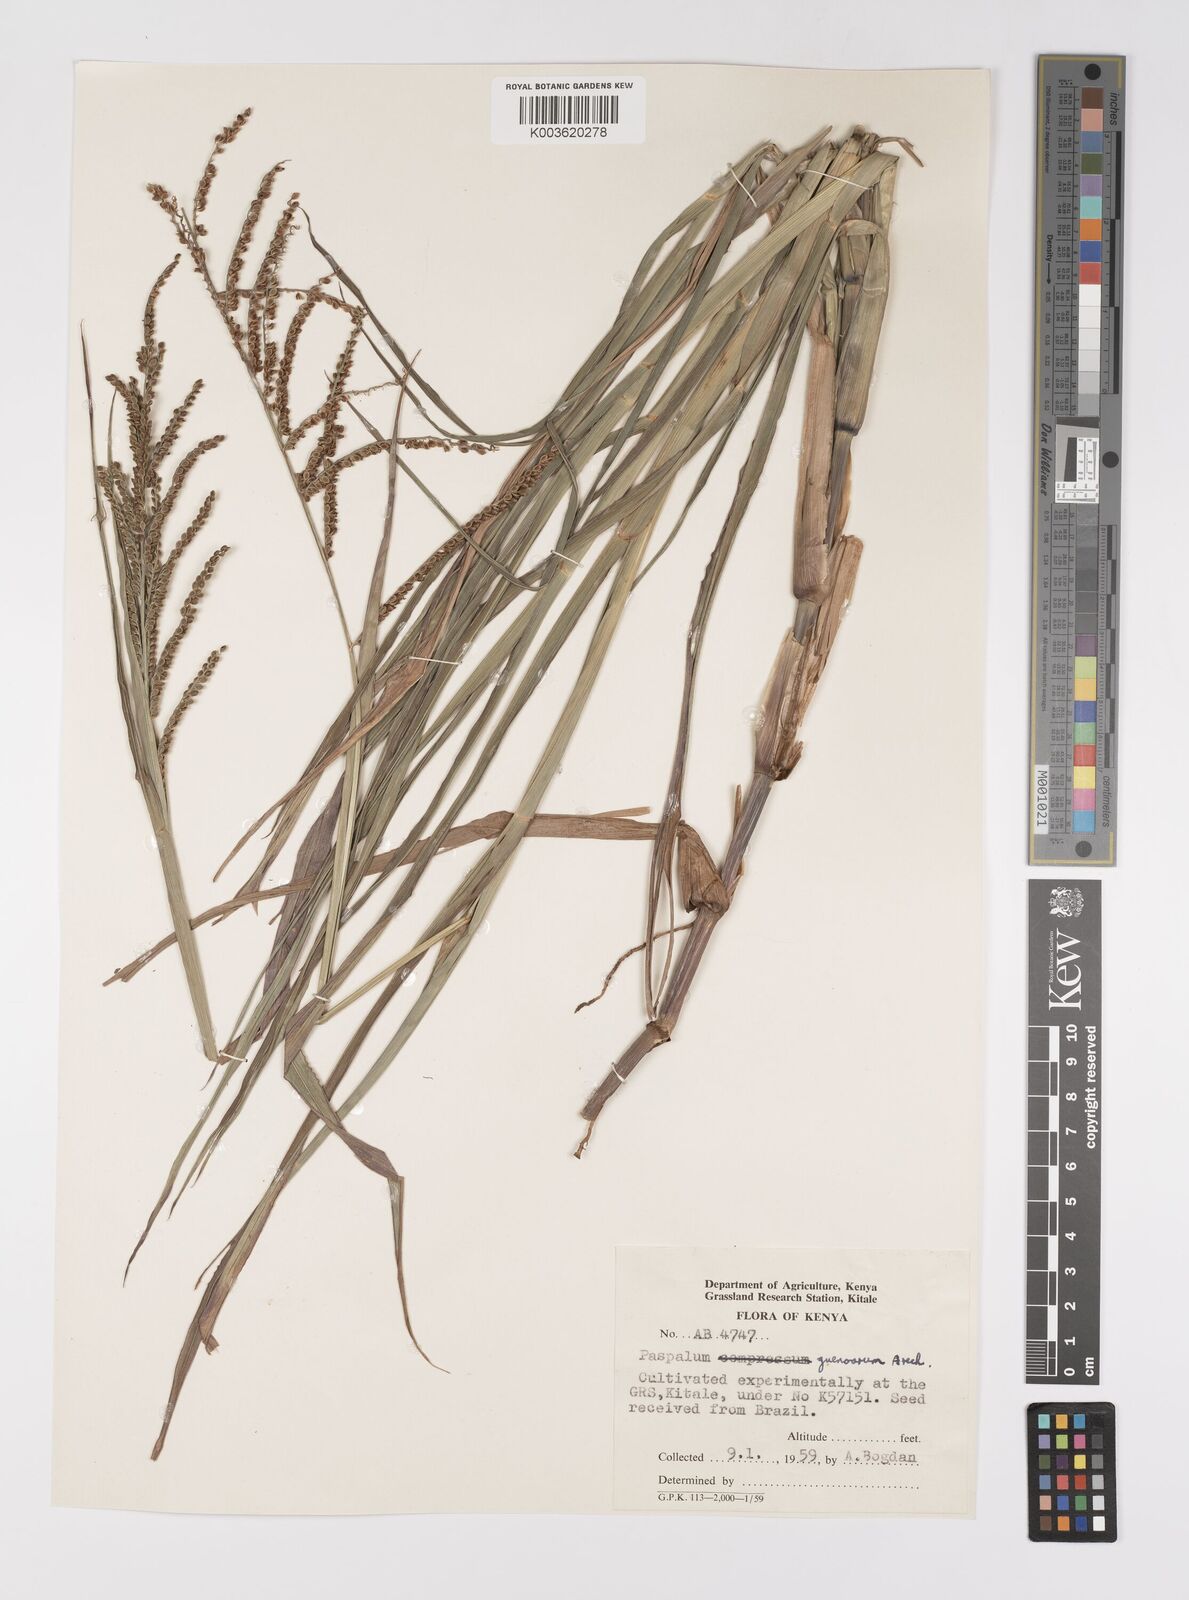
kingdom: Plantae
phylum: Tracheophyta
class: Liliopsida
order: Poales
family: Poaceae
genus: Paspalum
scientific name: Paspalum guenoarum
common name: Wintergreen paspalum
